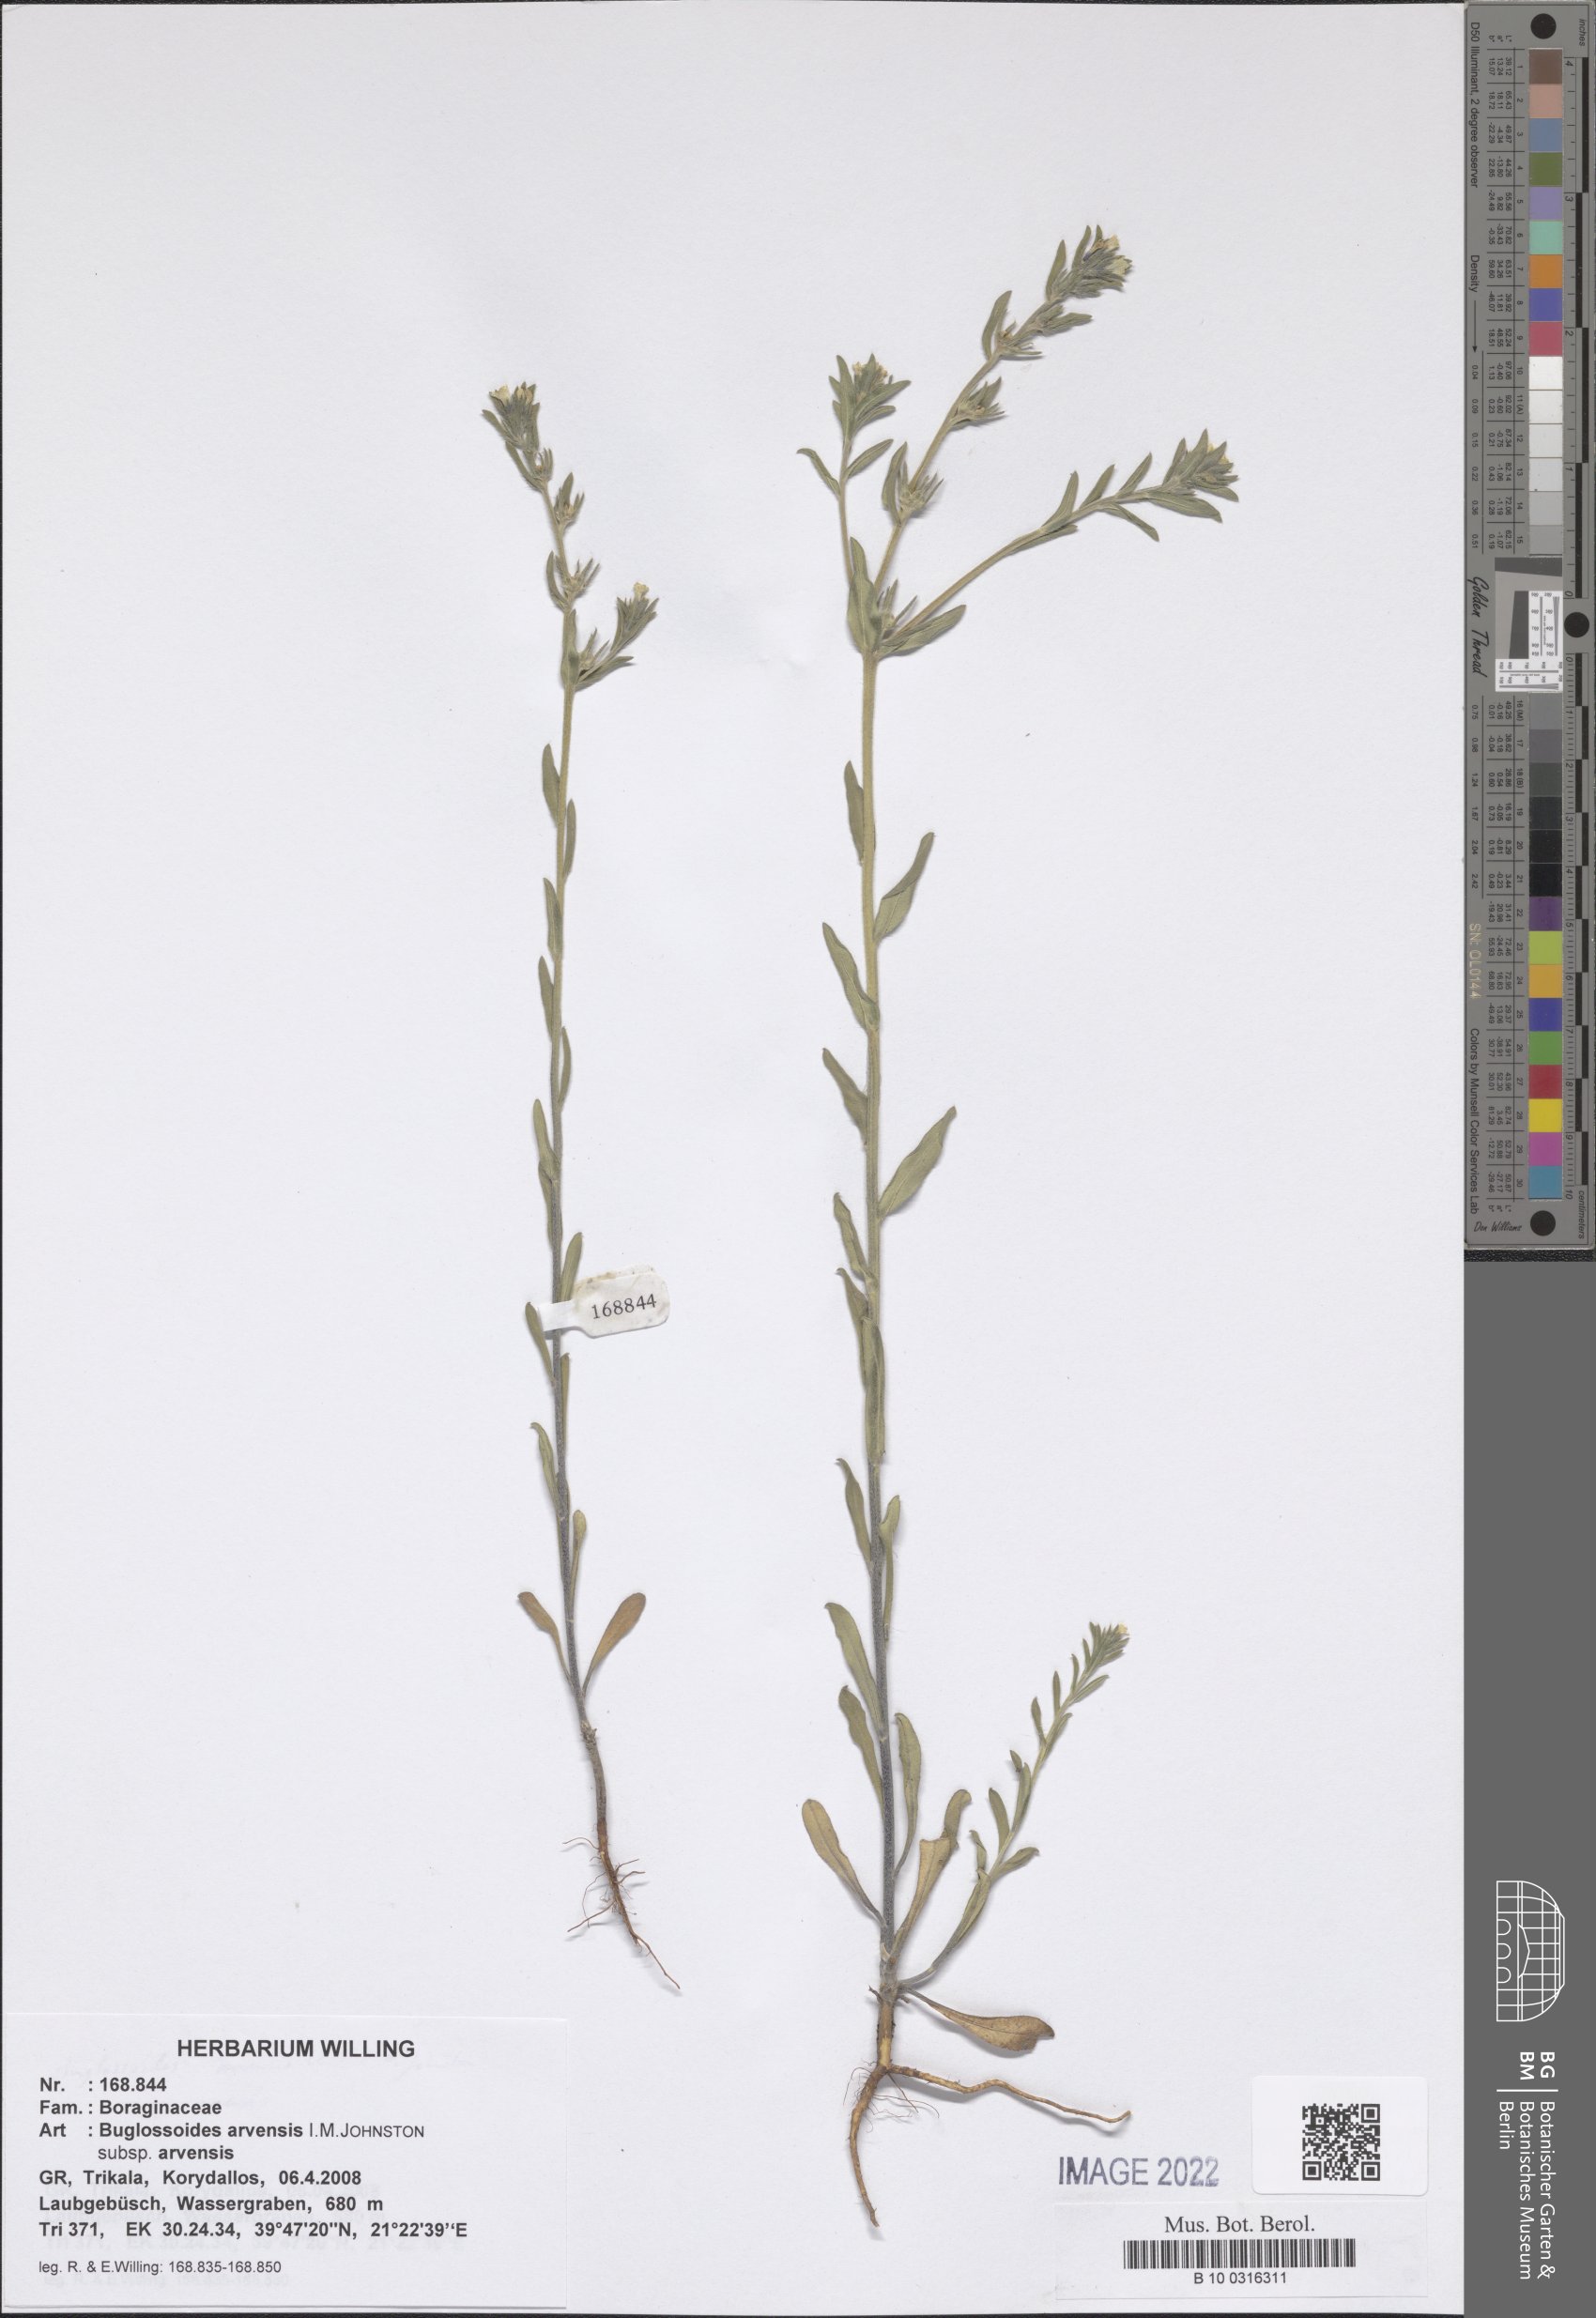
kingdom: Plantae
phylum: Tracheophyta
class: Magnoliopsida
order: Boraginales
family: Boraginaceae
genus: Buglossoides
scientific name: Buglossoides arvensis
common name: Corn gromwell
